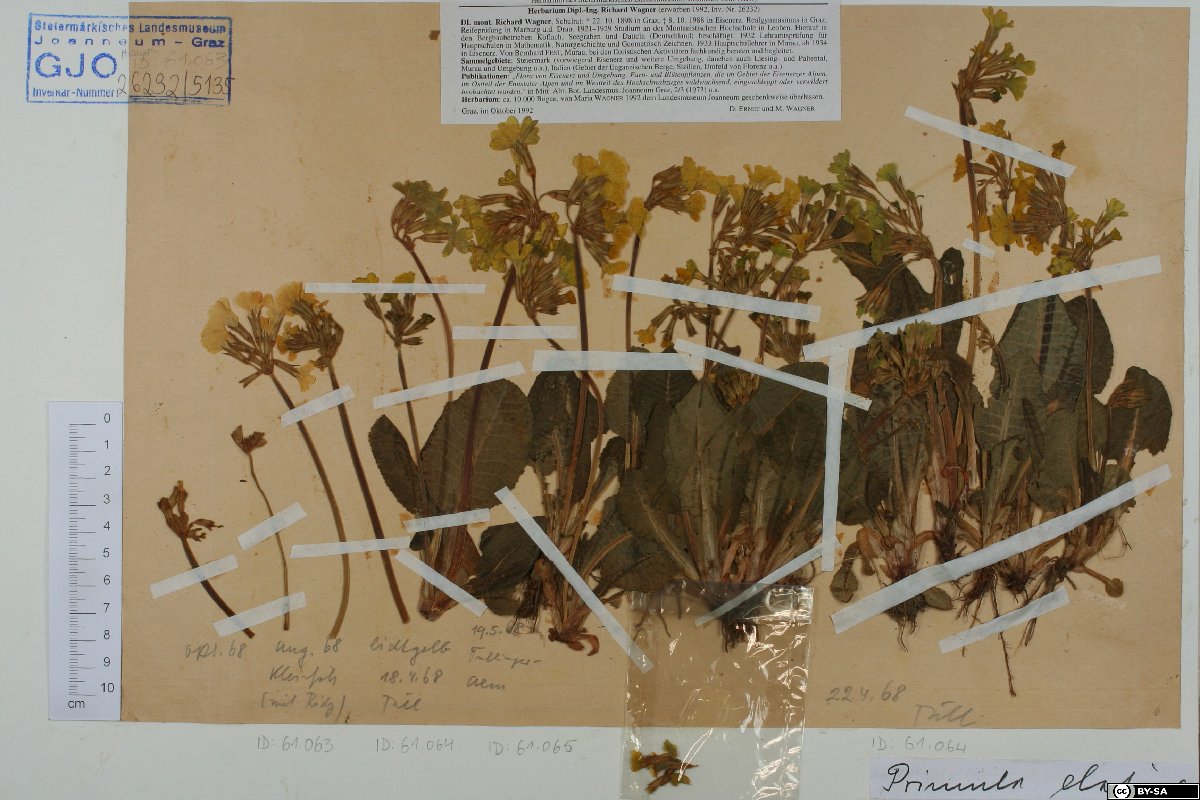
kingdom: Plantae
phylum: Tracheophyta
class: Magnoliopsida
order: Ericales
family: Primulaceae
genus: Primula
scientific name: Primula elatior
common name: Oxlip
